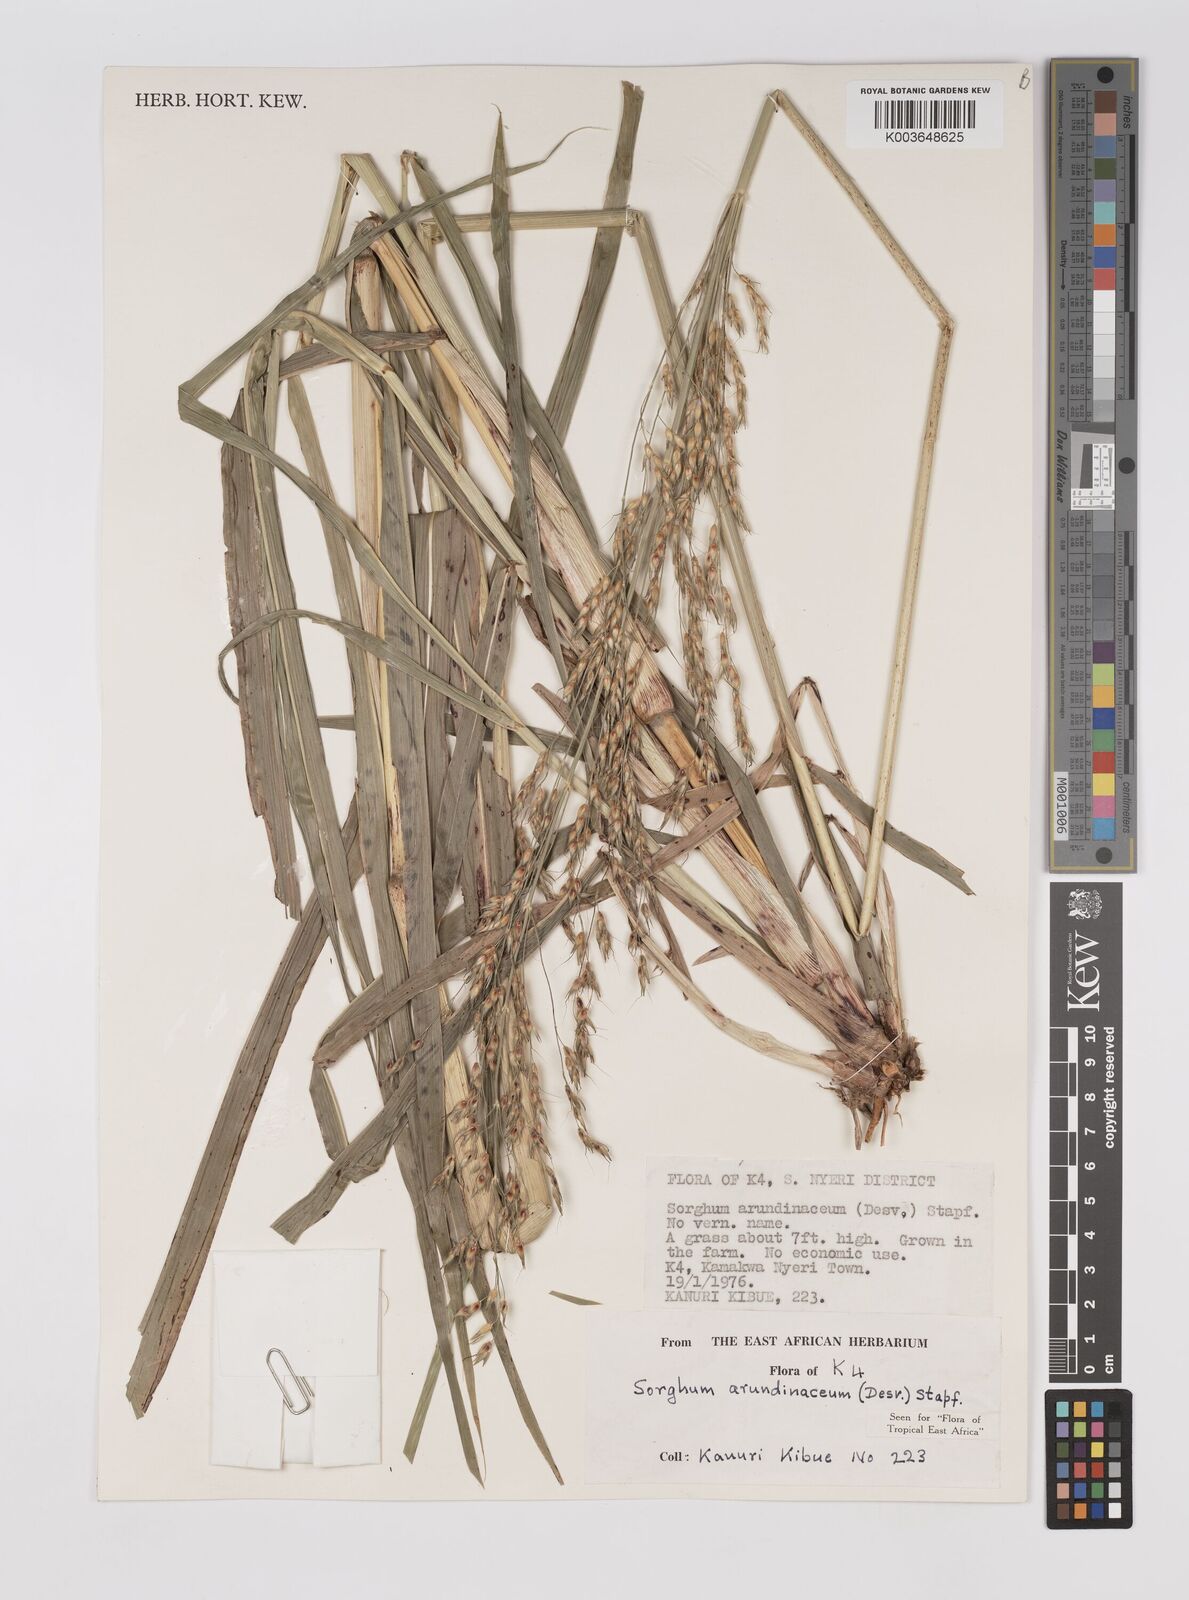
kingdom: Plantae
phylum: Tracheophyta
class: Liliopsida
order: Poales
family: Poaceae
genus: Sorghum
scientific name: Sorghum arundinaceum
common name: Sorghum
